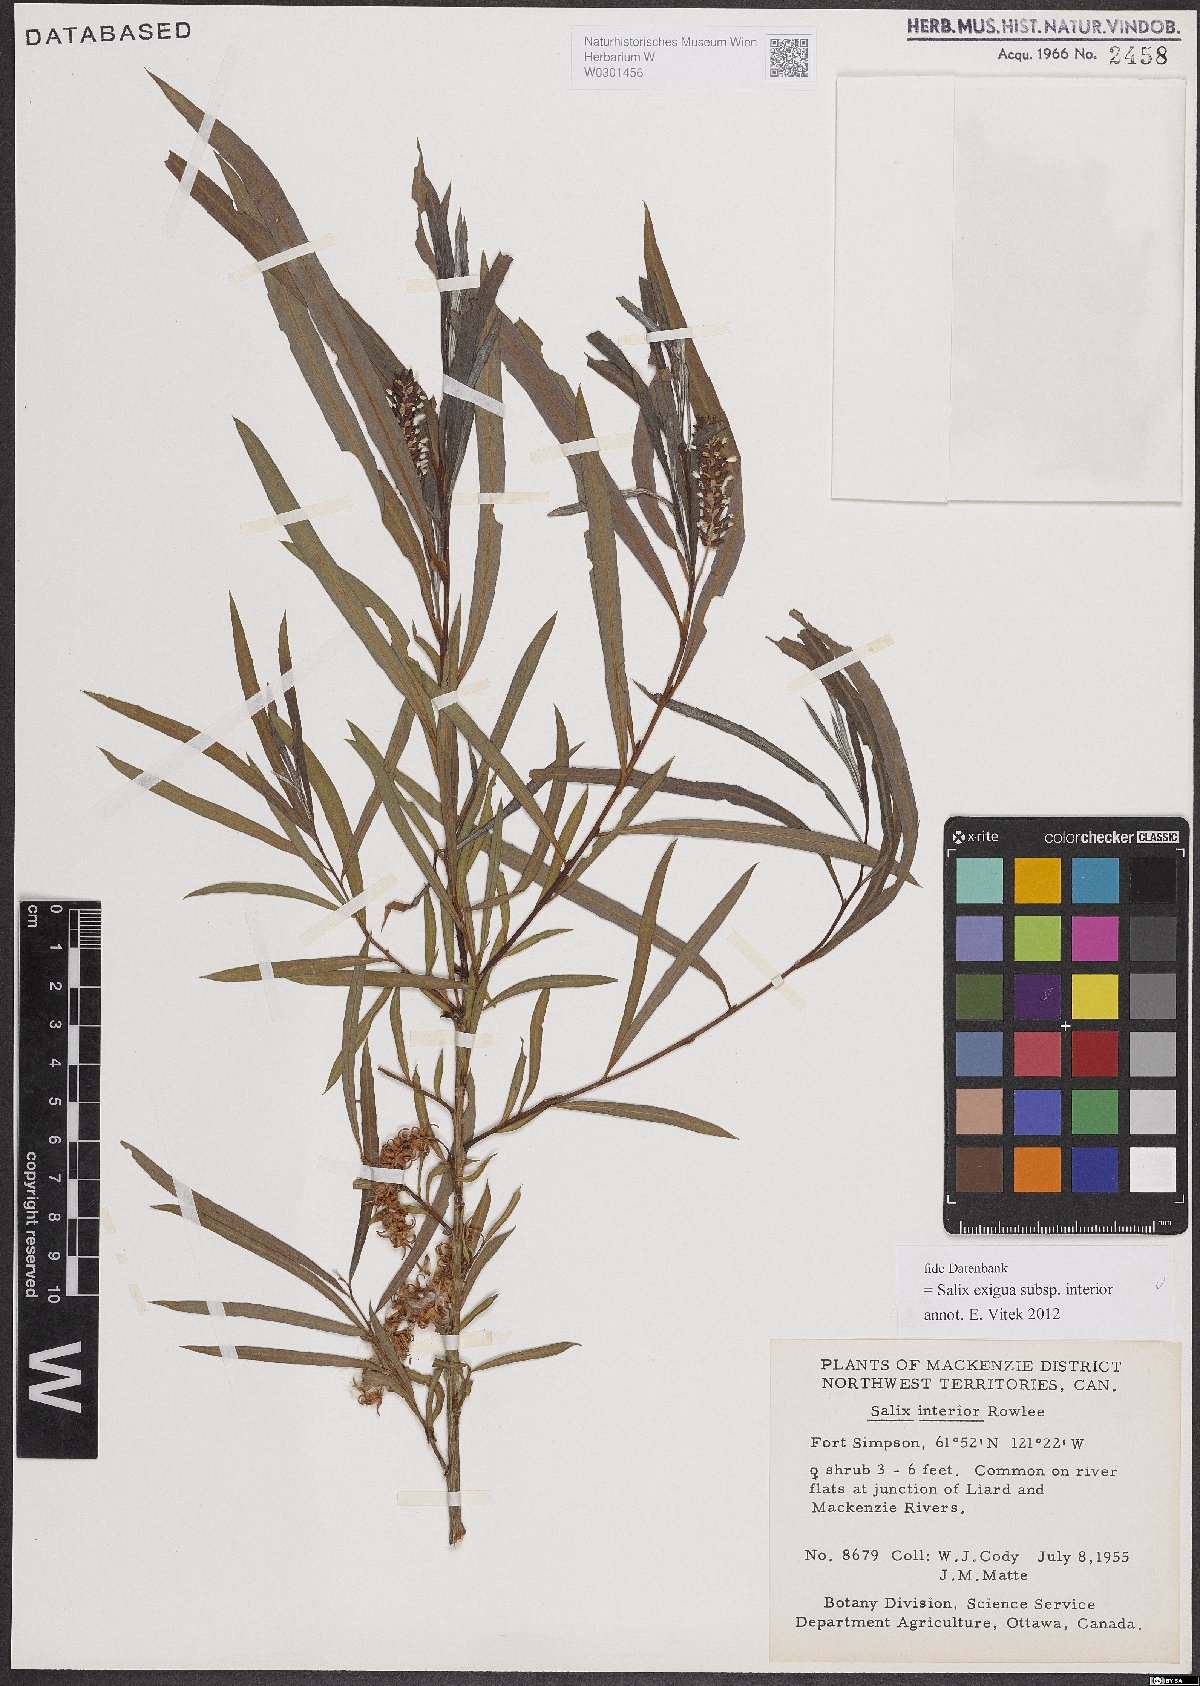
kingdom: Plantae
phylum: Tracheophyta
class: Magnoliopsida
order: Malpighiales
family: Salicaceae
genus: Salix
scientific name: Salix interior
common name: Sandbar willow
